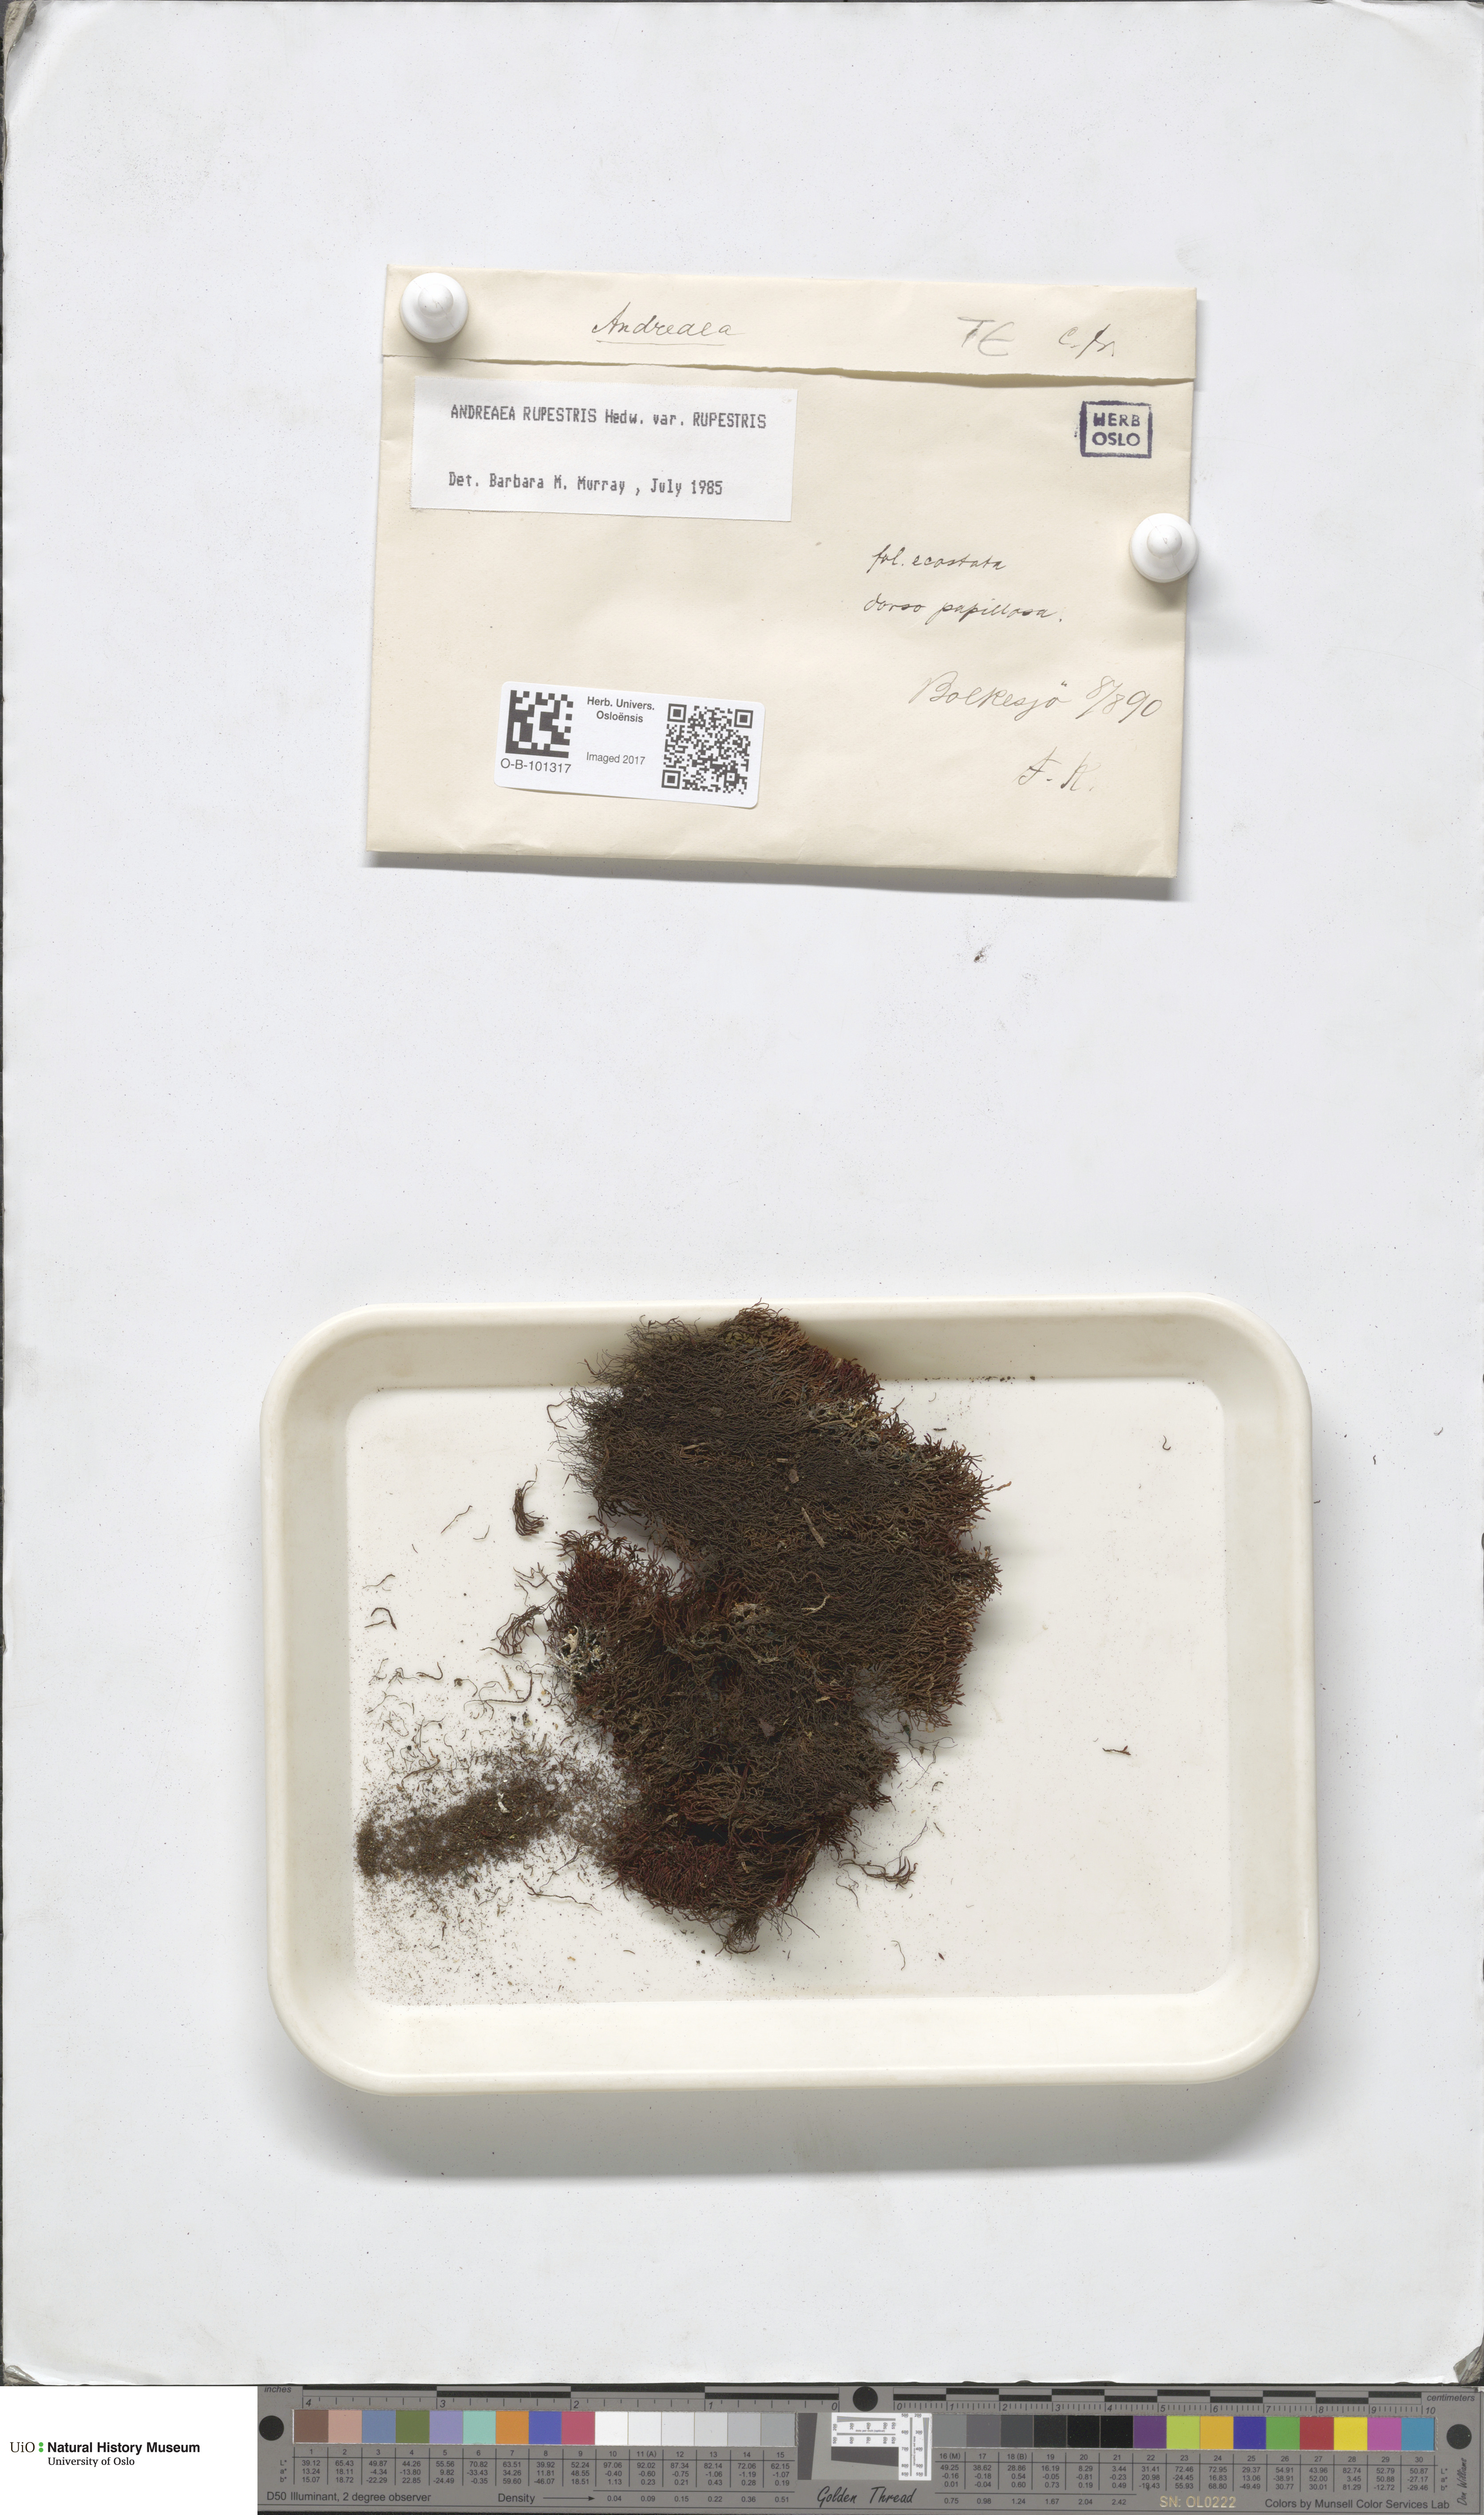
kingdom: Plantae
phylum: Bryophyta
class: Andreaeopsida
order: Andreaeales
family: Andreaeaceae
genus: Andreaea
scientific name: Andreaea rupestris
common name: Black rock moss
